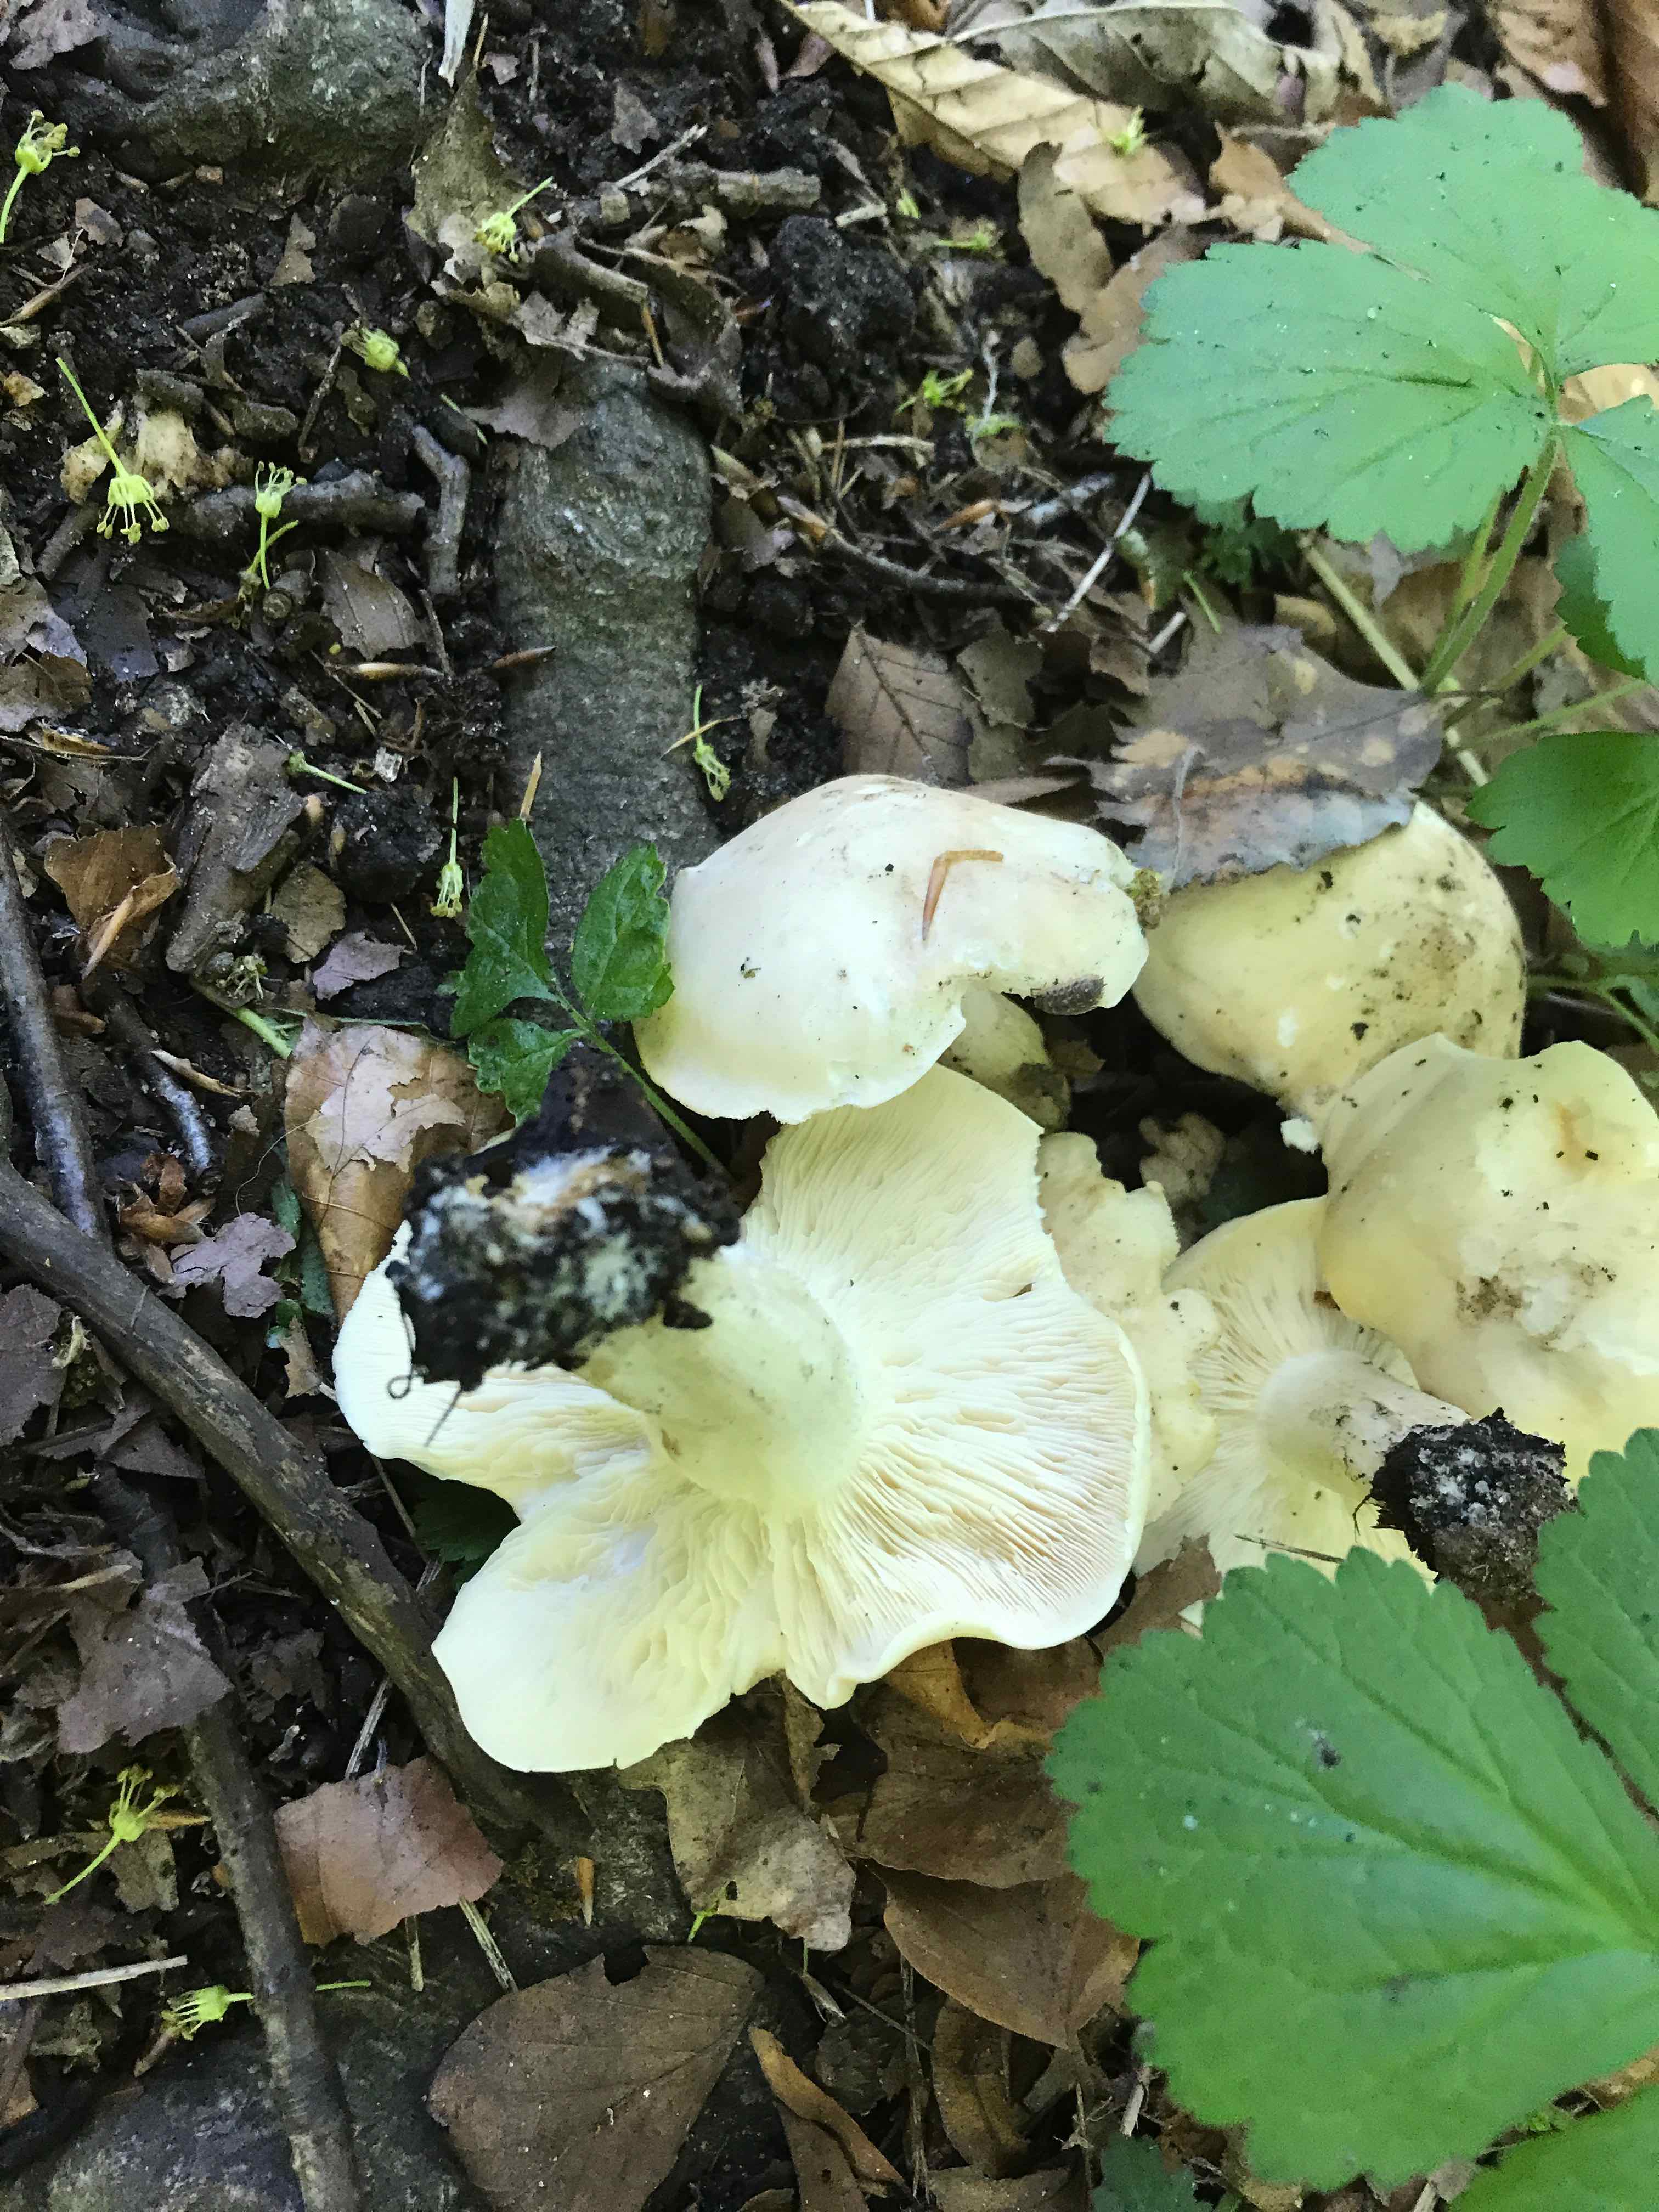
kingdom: Fungi
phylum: Basidiomycota
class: Agaricomycetes
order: Agaricales
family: Lyophyllaceae
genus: Calocybe
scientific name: Calocybe gambosa
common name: vårmusseron
